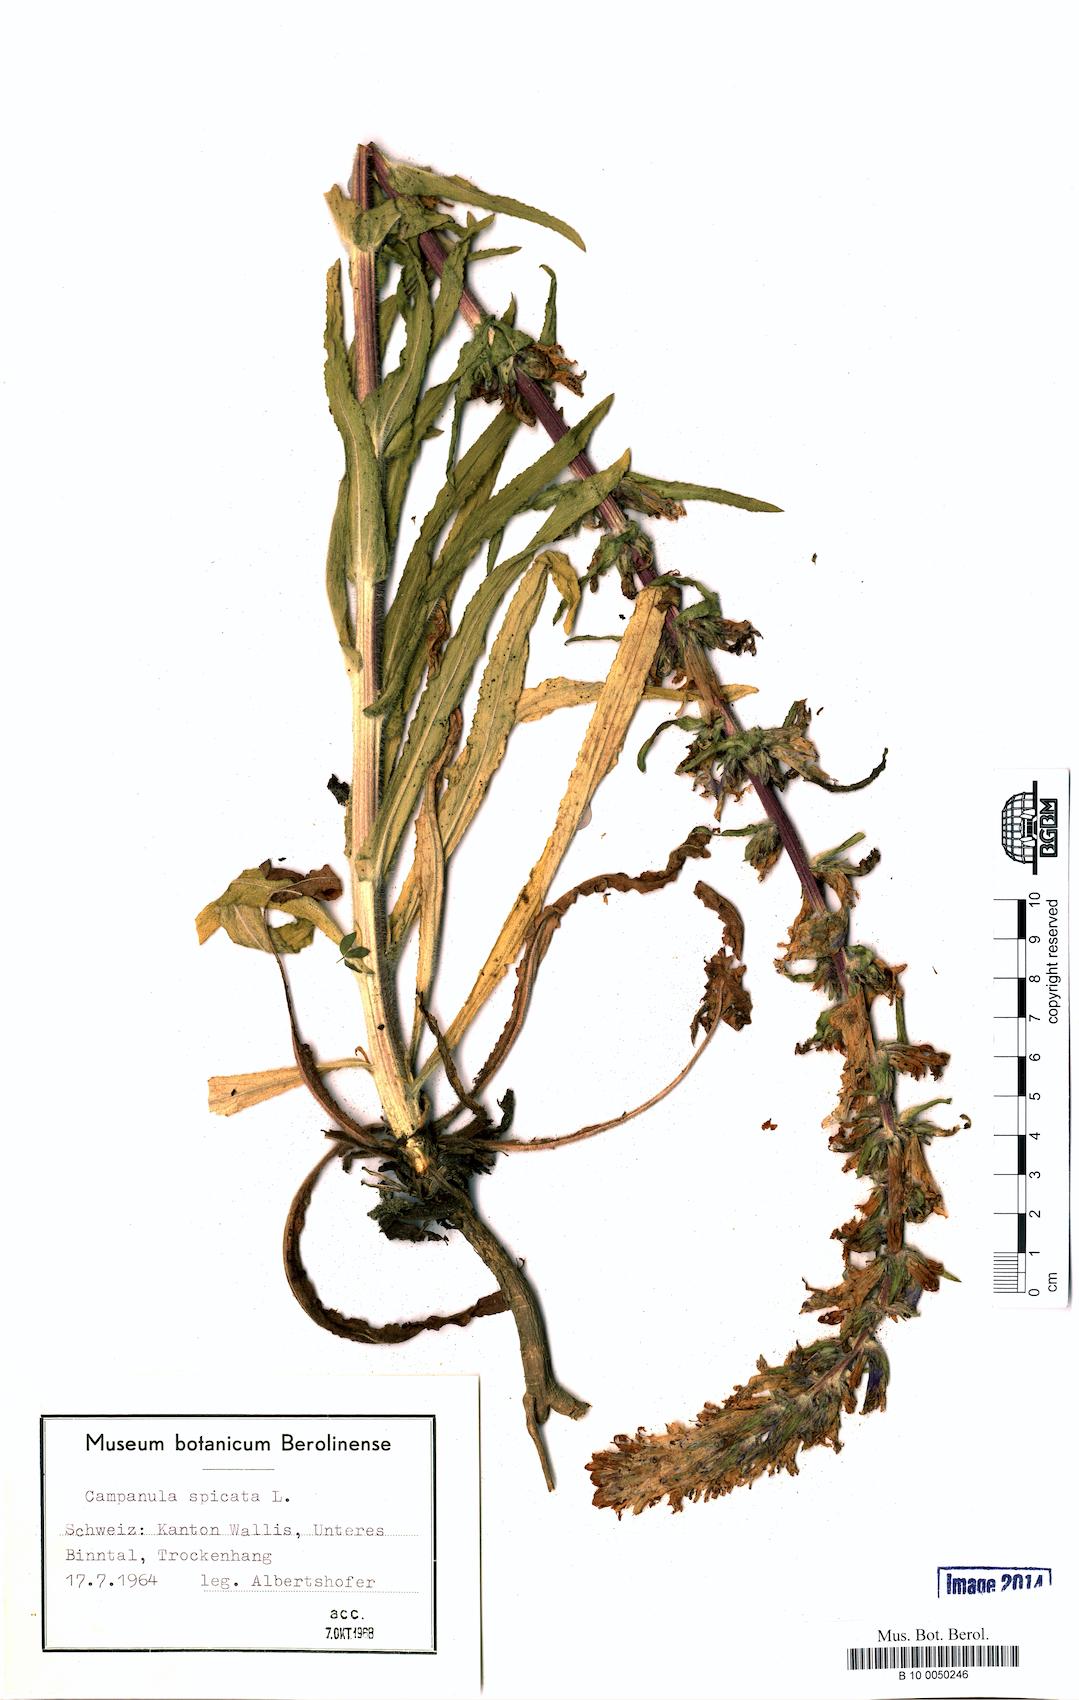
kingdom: Plantae
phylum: Tracheophyta
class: Magnoliopsida
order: Asterales
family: Campanulaceae
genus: Campanula
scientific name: Campanula spicata
